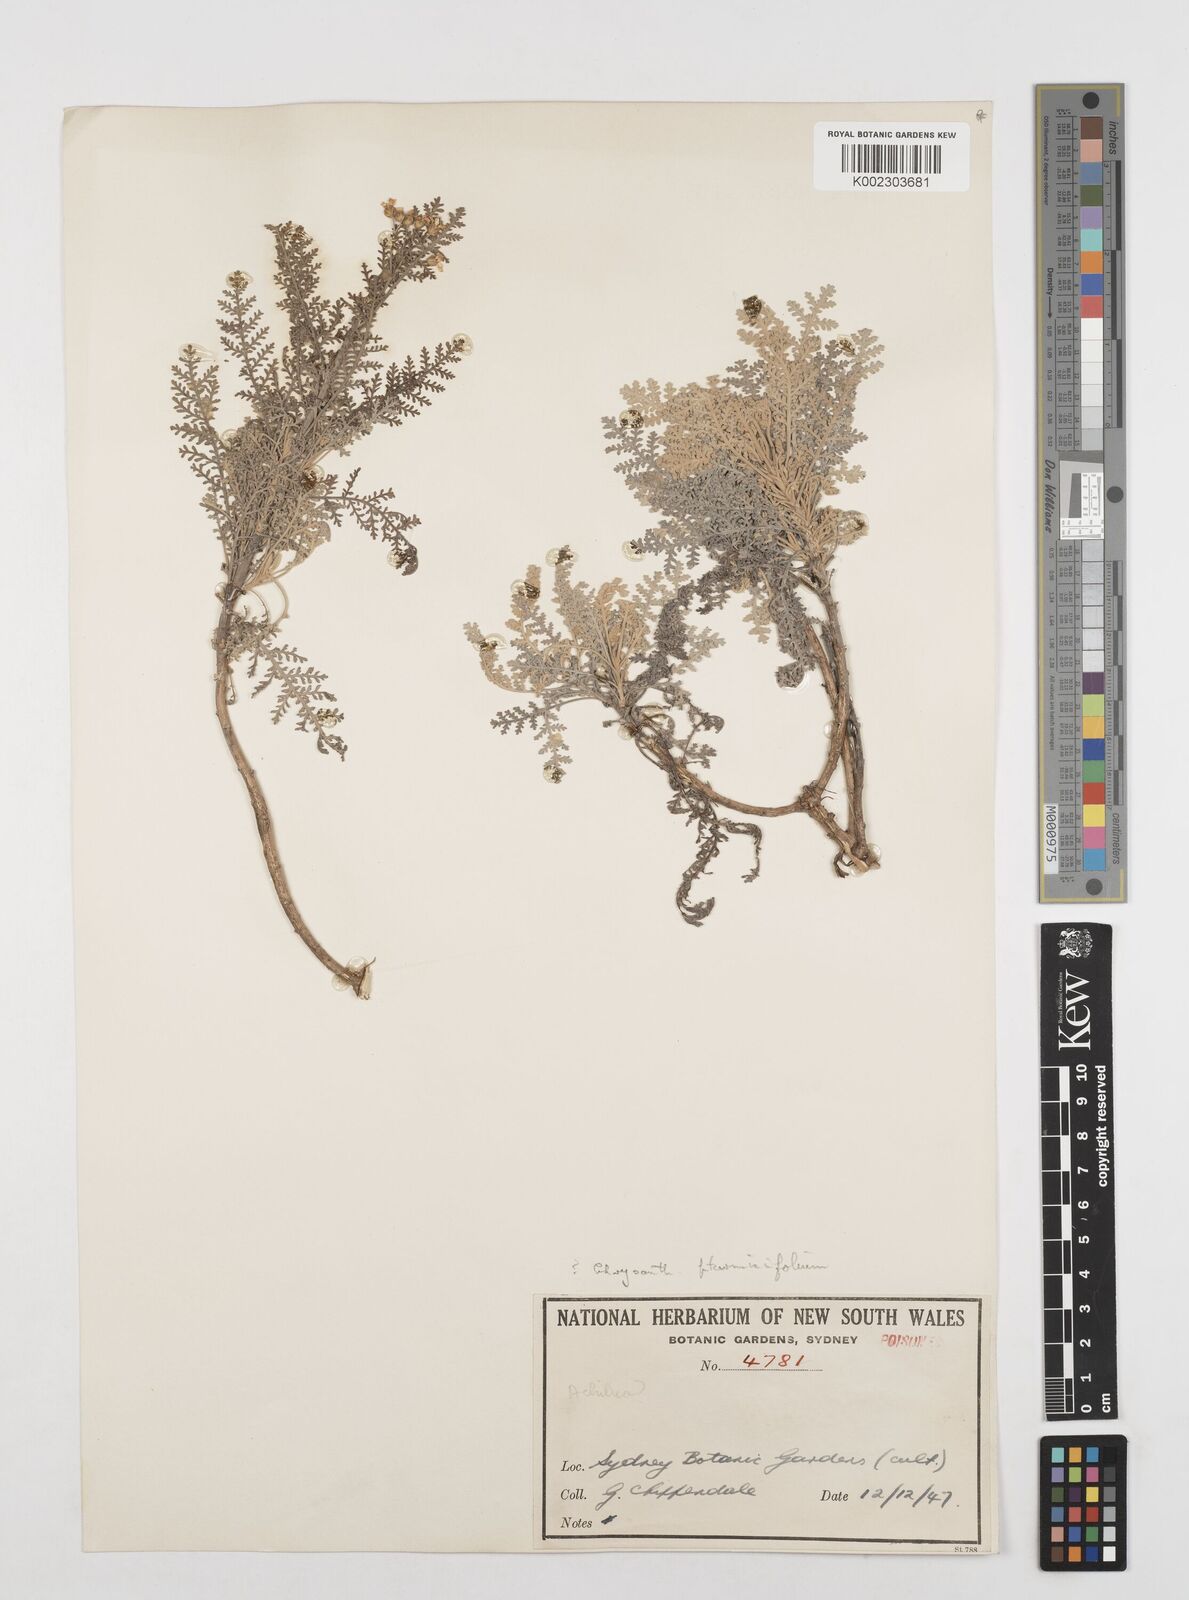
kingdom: Plantae
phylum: Tracheophyta
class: Magnoliopsida
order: Asterales
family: Asteraceae
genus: Gonospermum
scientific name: Gonospermum ptarmiciflorum
